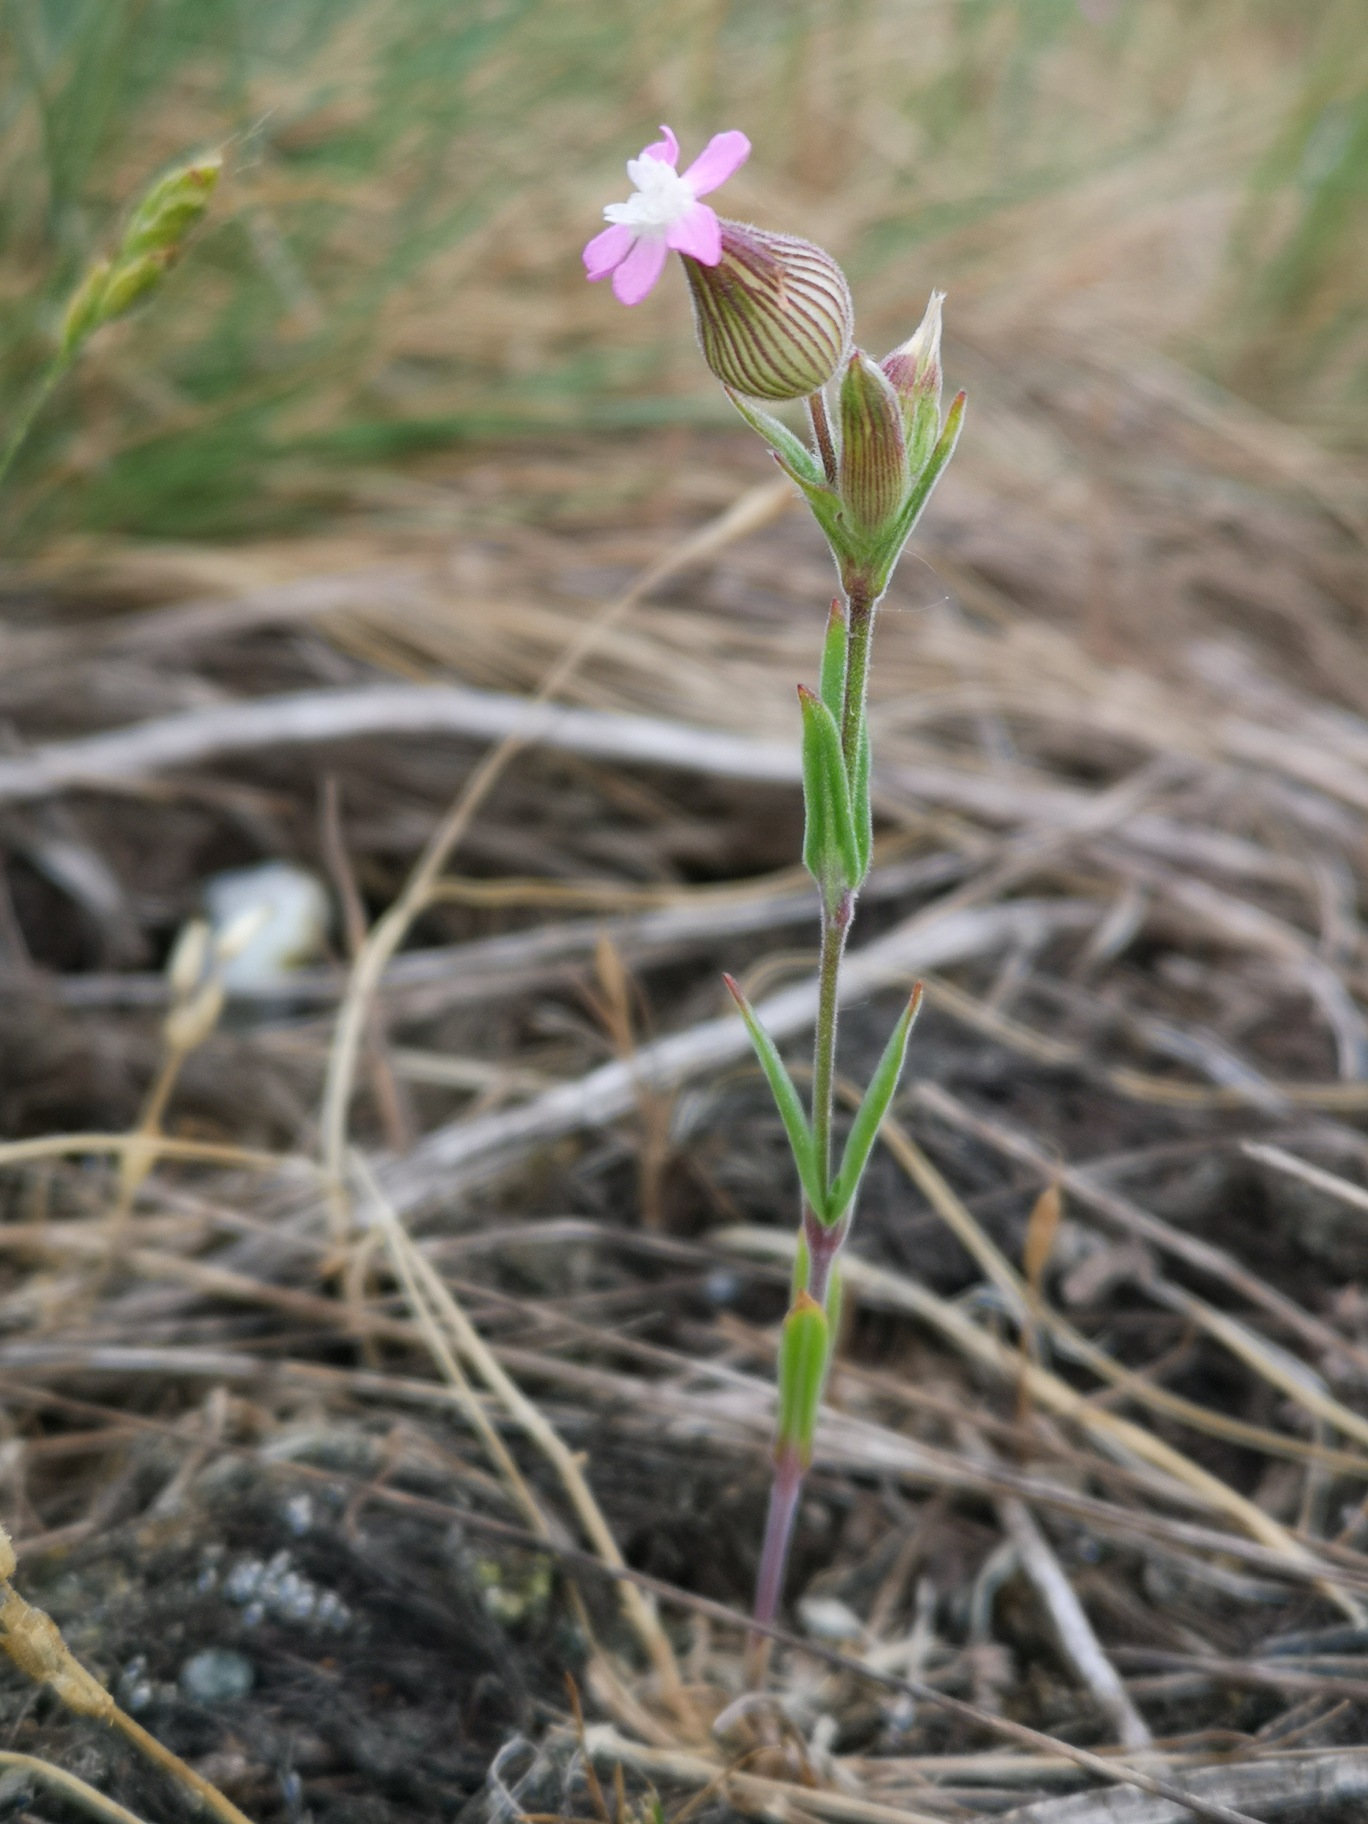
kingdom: Plantae
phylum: Tracheophyta
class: Magnoliopsida
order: Caryophyllales
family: Caryophyllaceae
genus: Silene
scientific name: Silene conica
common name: Kegle-limurt
